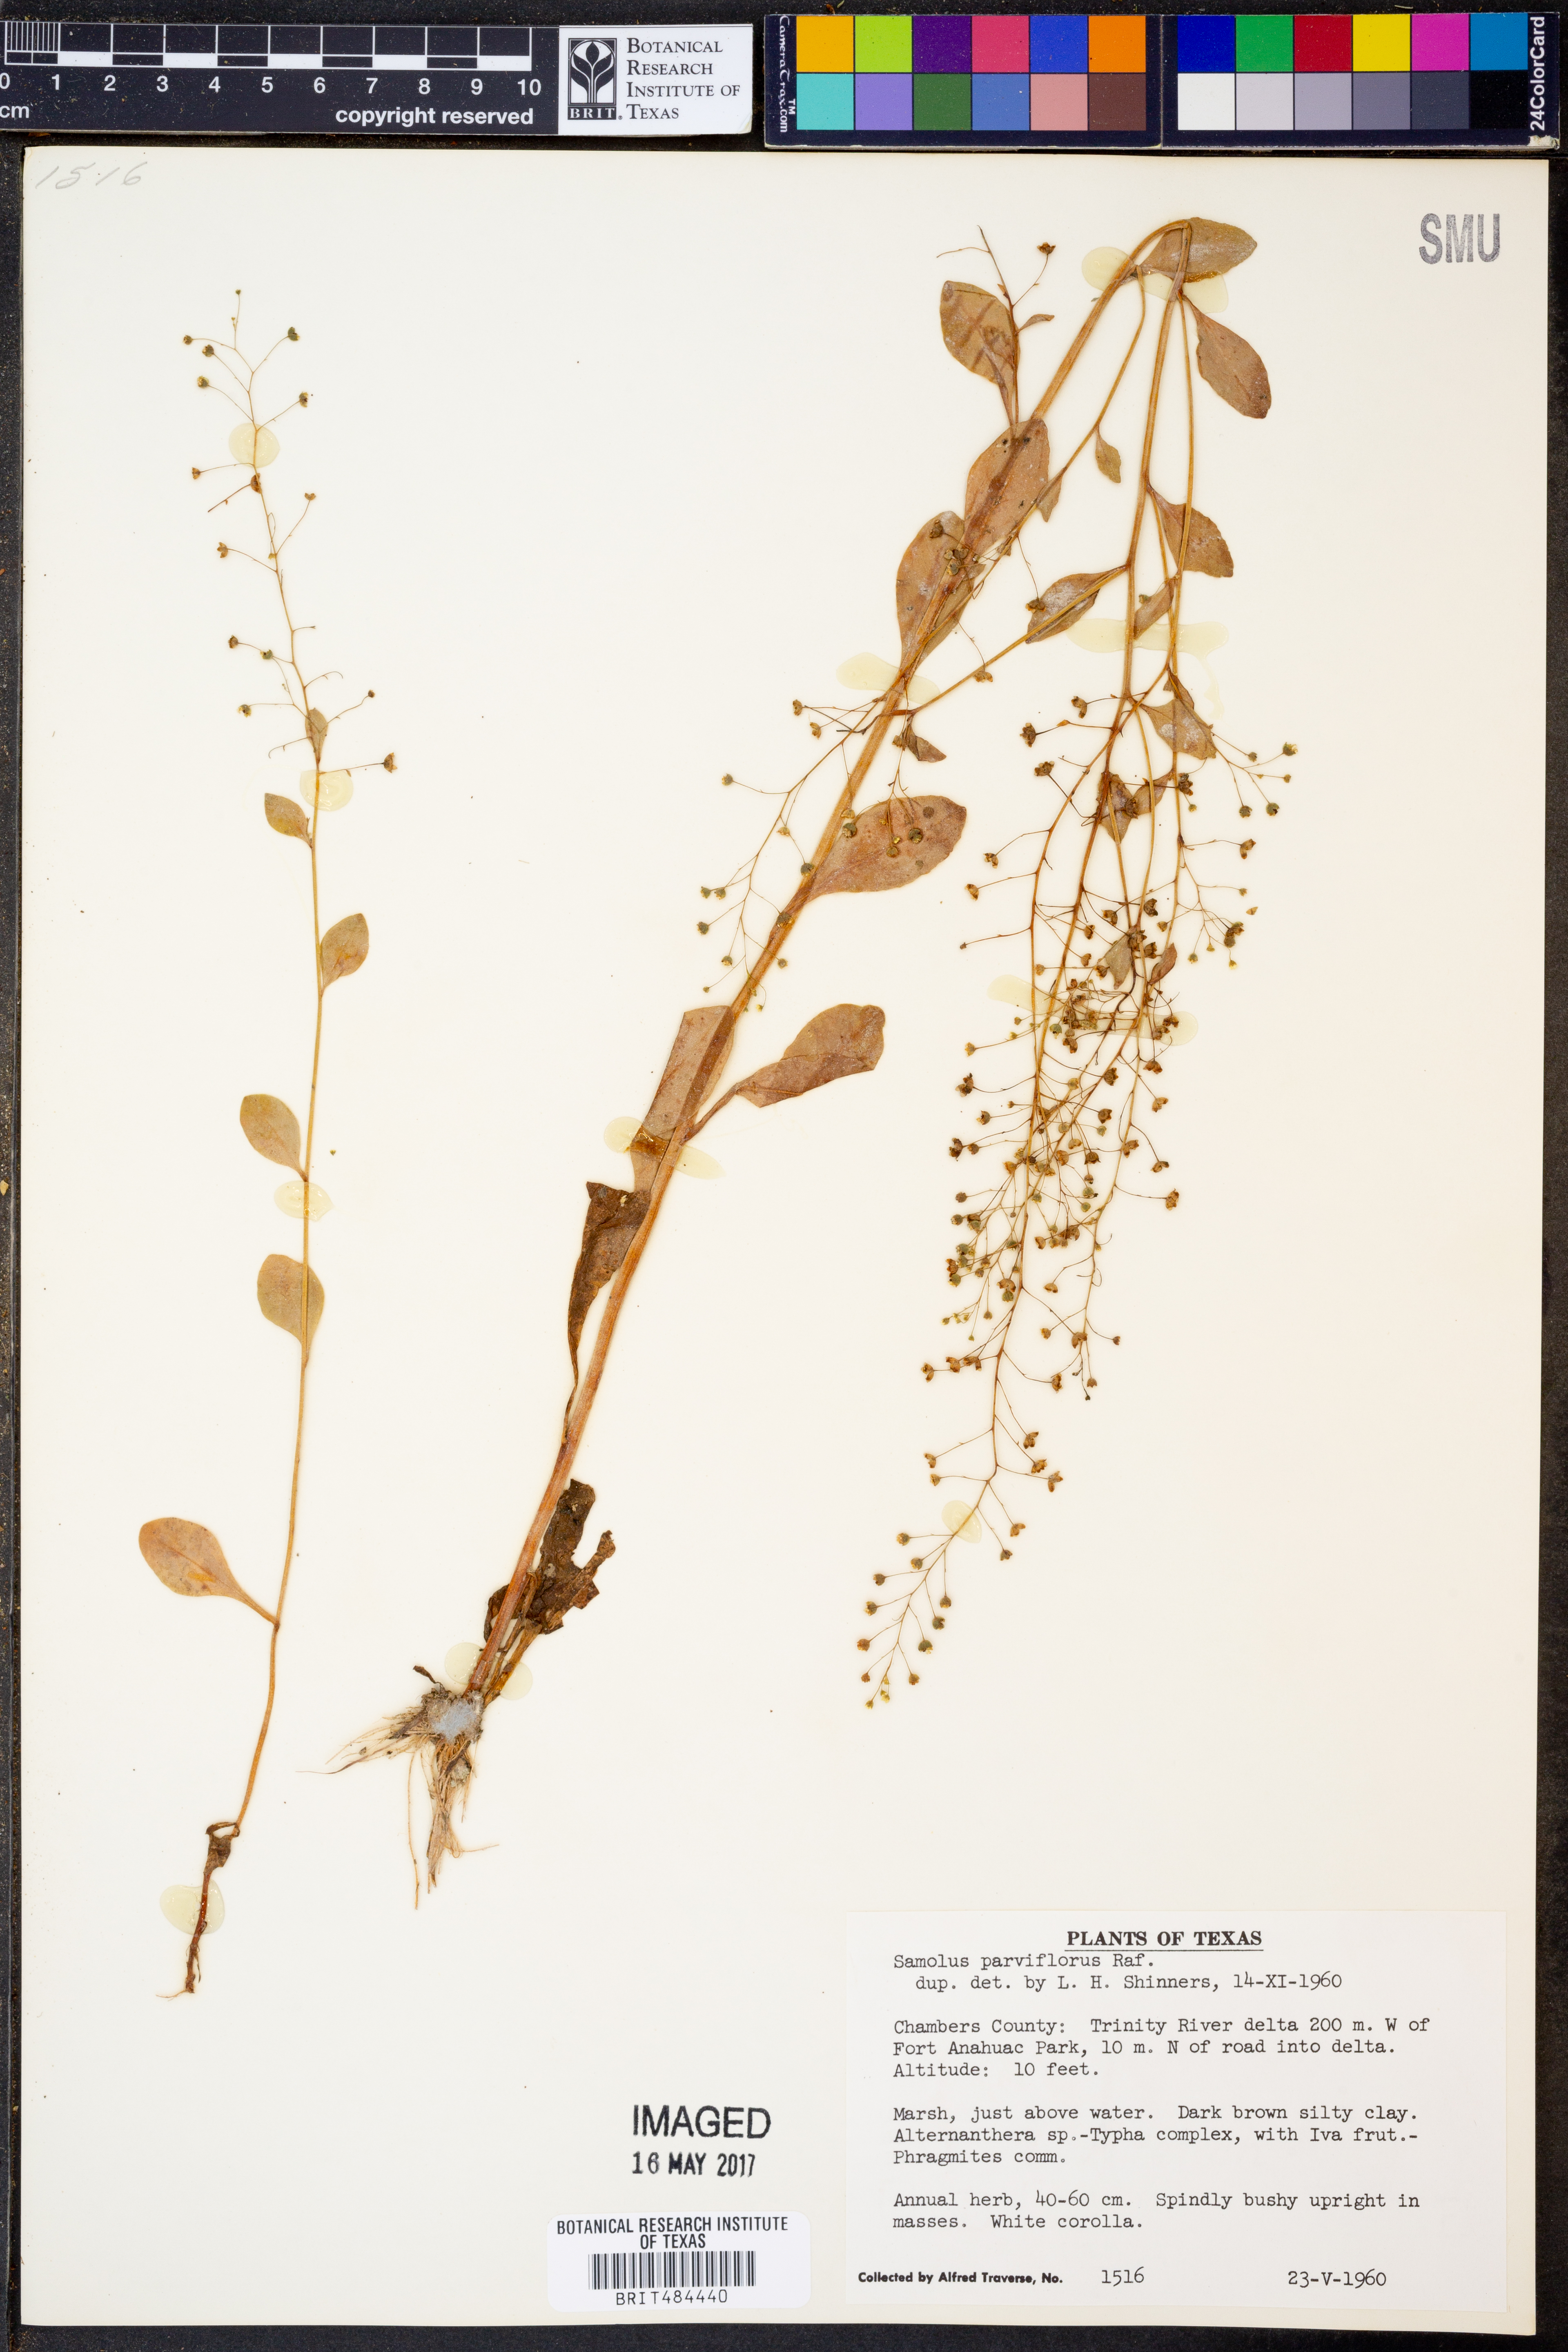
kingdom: Plantae
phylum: Tracheophyta
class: Magnoliopsida
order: Ericales
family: Primulaceae
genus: Samolus
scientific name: Samolus parviflorus
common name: False water pimpernel
